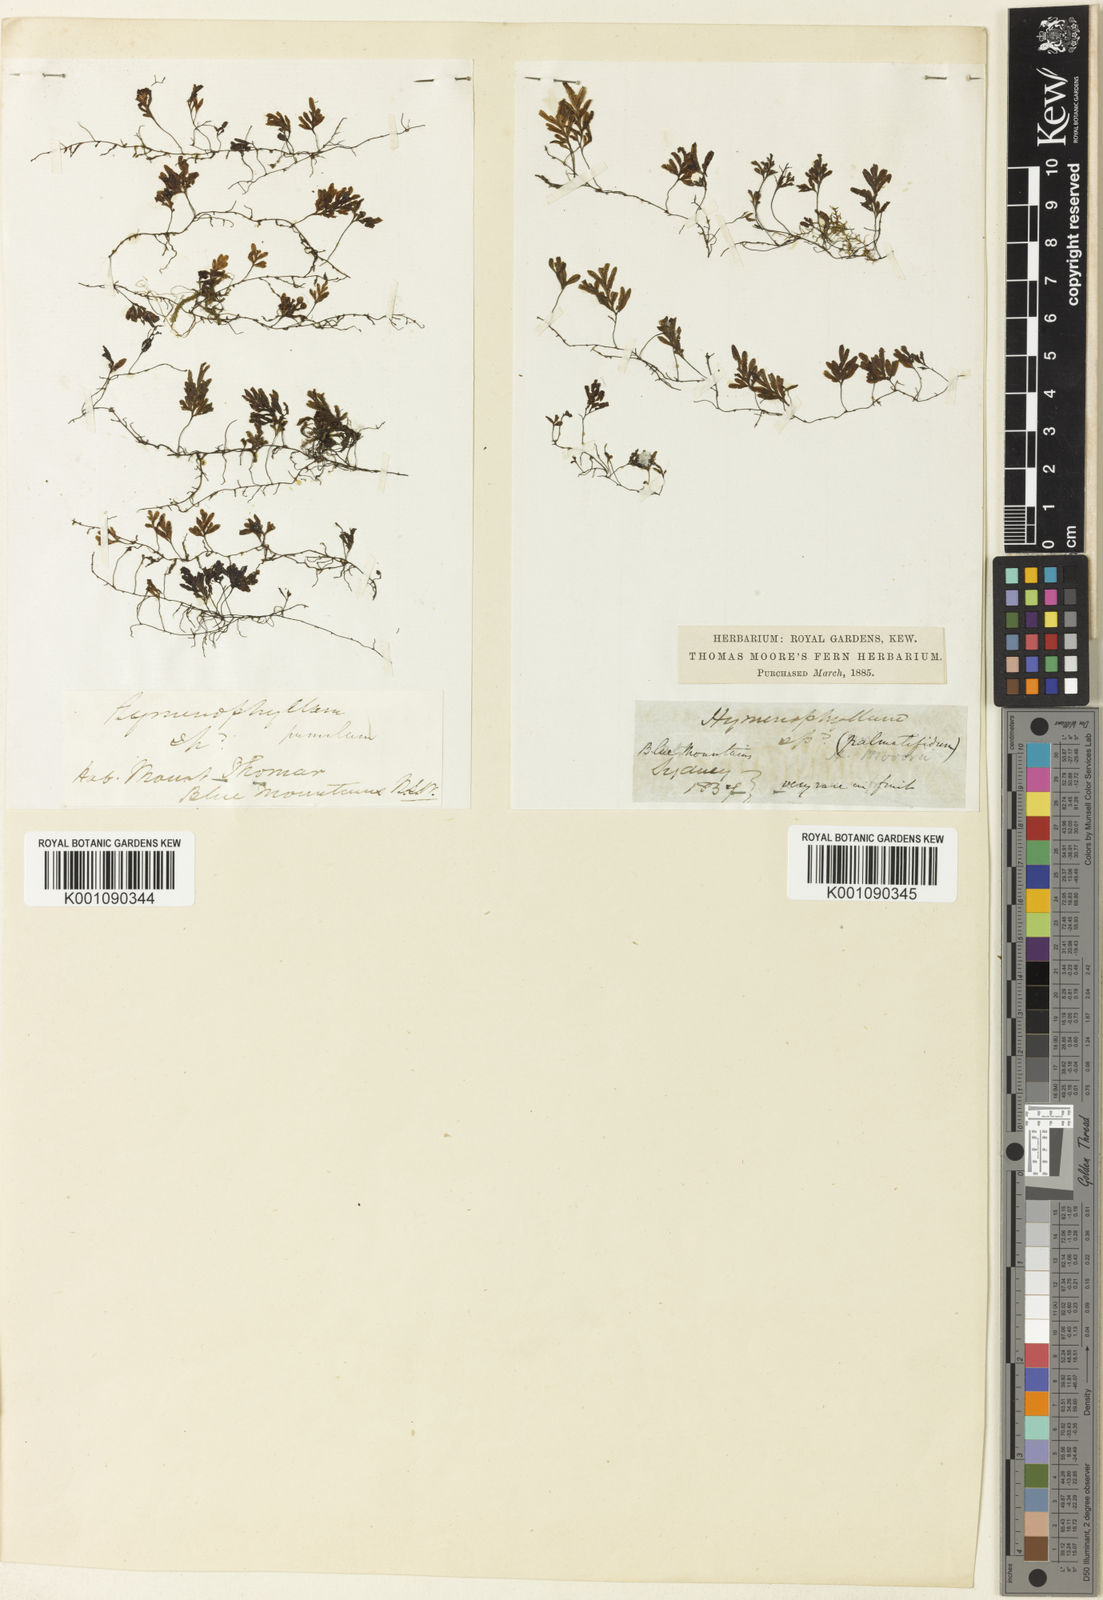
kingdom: Plantae
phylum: Tracheophyta
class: Polypodiopsida
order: Hymenophyllales
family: Hymenophyllaceae
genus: Hymenophyllum
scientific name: Hymenophyllum pumilum
